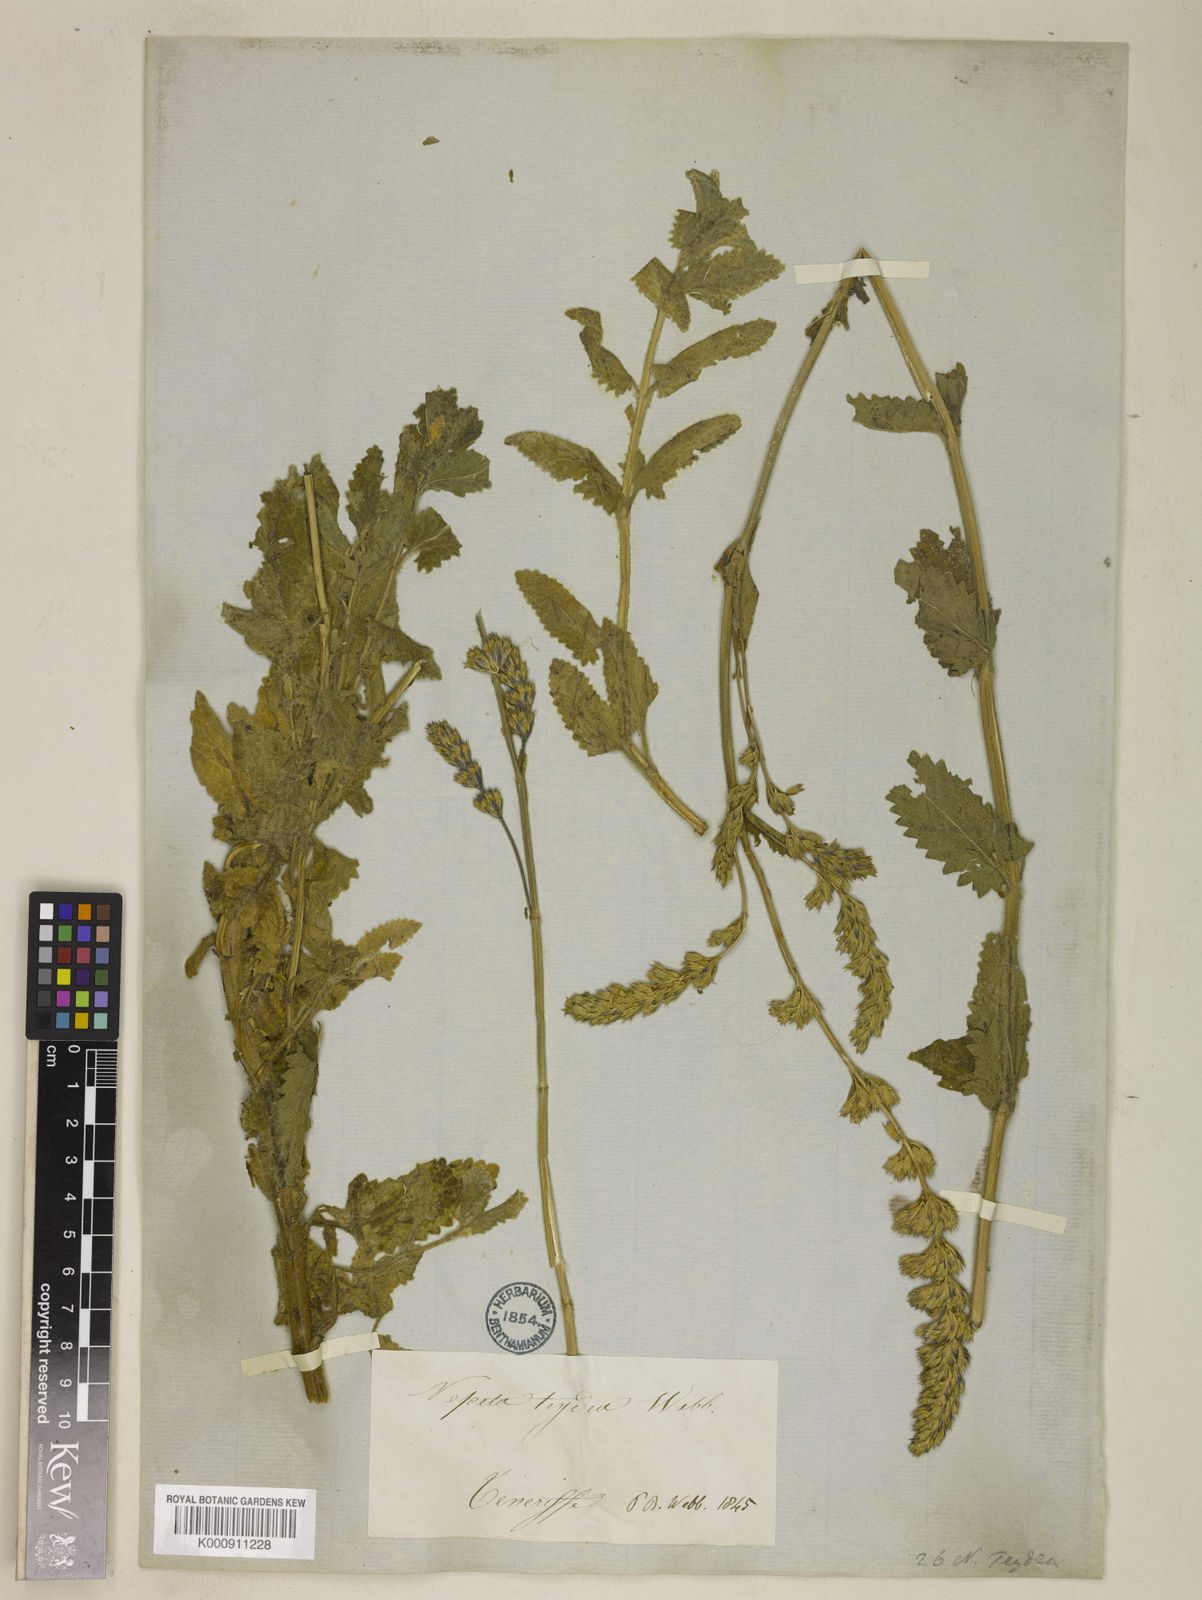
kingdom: Plantae
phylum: Tracheophyta
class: Magnoliopsida
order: Lamiales
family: Lamiaceae
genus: Nepeta
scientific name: Nepeta teydea
